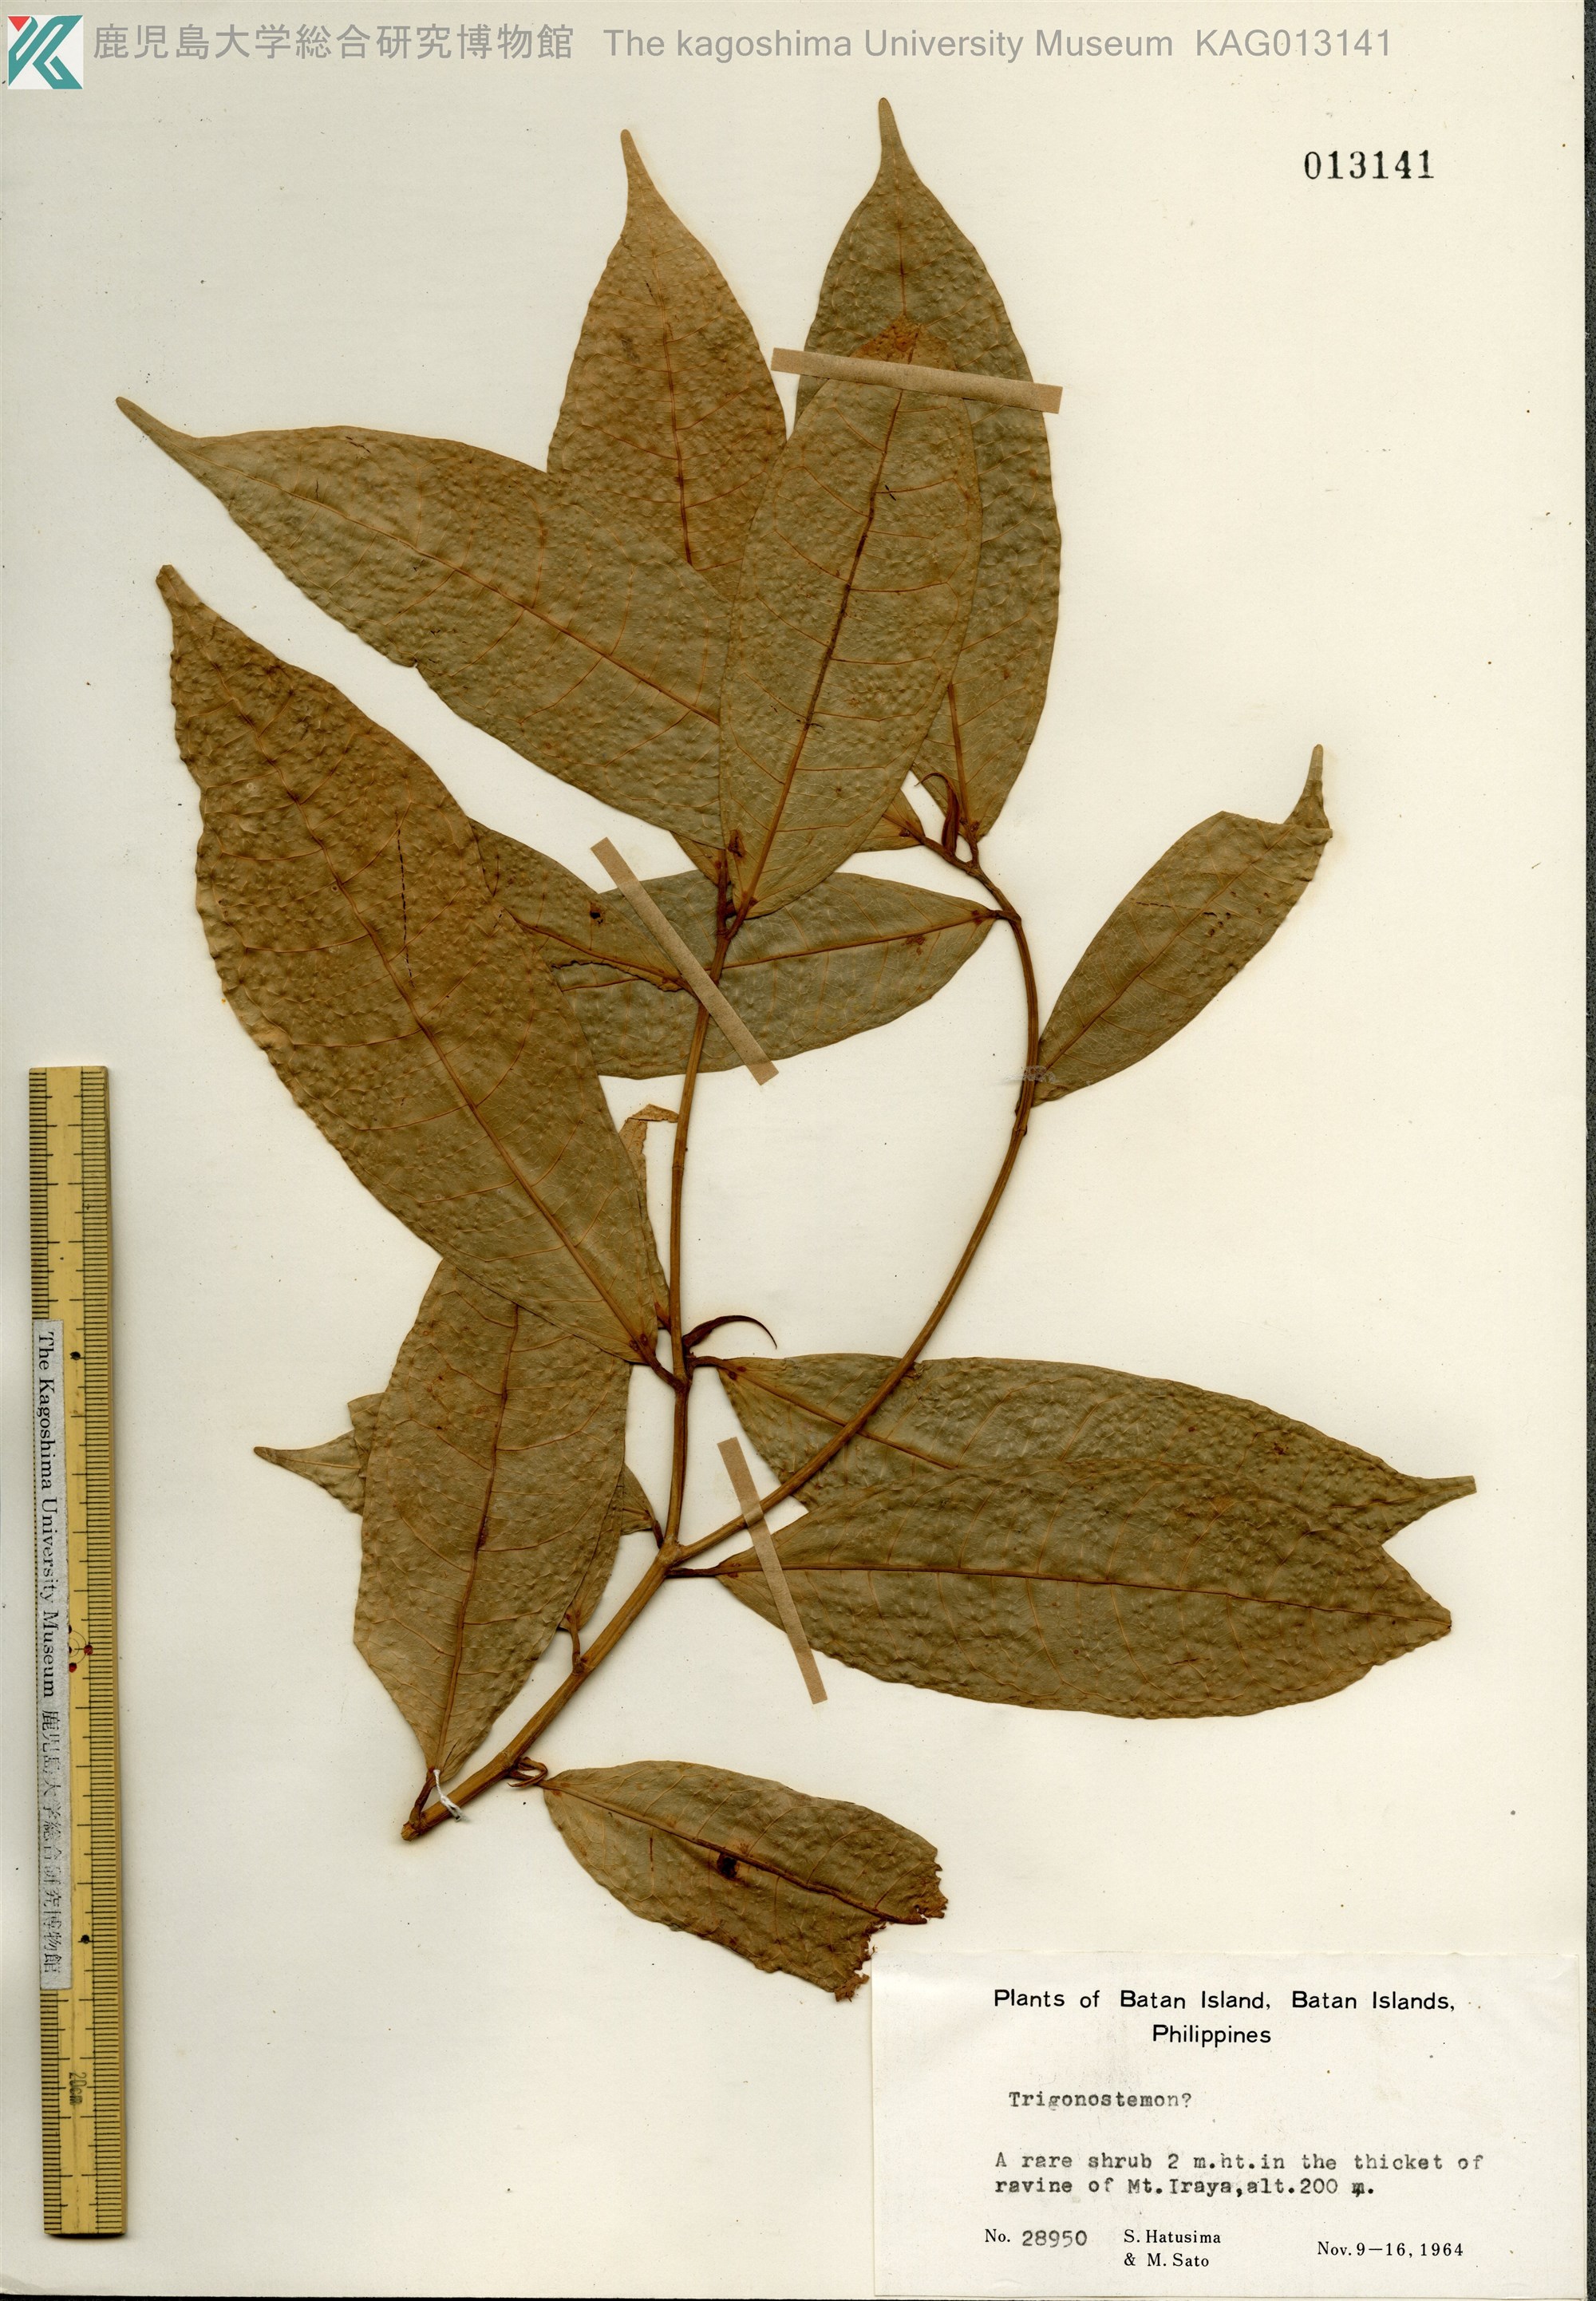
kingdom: Plantae
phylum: Tracheophyta
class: Magnoliopsida
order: Malpighiales
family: Euphorbiaceae
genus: Trigonostemon
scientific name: Trigonostemon
